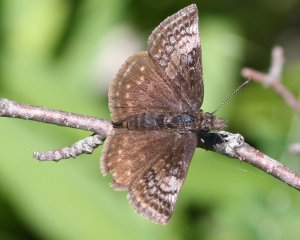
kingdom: Animalia
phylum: Arthropoda
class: Insecta
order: Lepidoptera
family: Hesperiidae
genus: Erynnis
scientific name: Erynnis icelus
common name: Dreamy Duskywing
